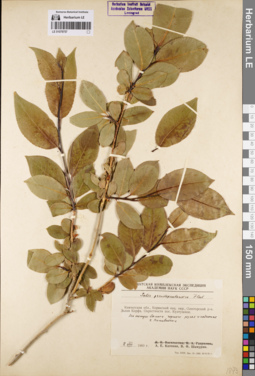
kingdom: Plantae
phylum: Tracheophyta
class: Magnoliopsida
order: Malpighiales
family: Salicaceae
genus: Salix
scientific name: Salix pseudopentandra
